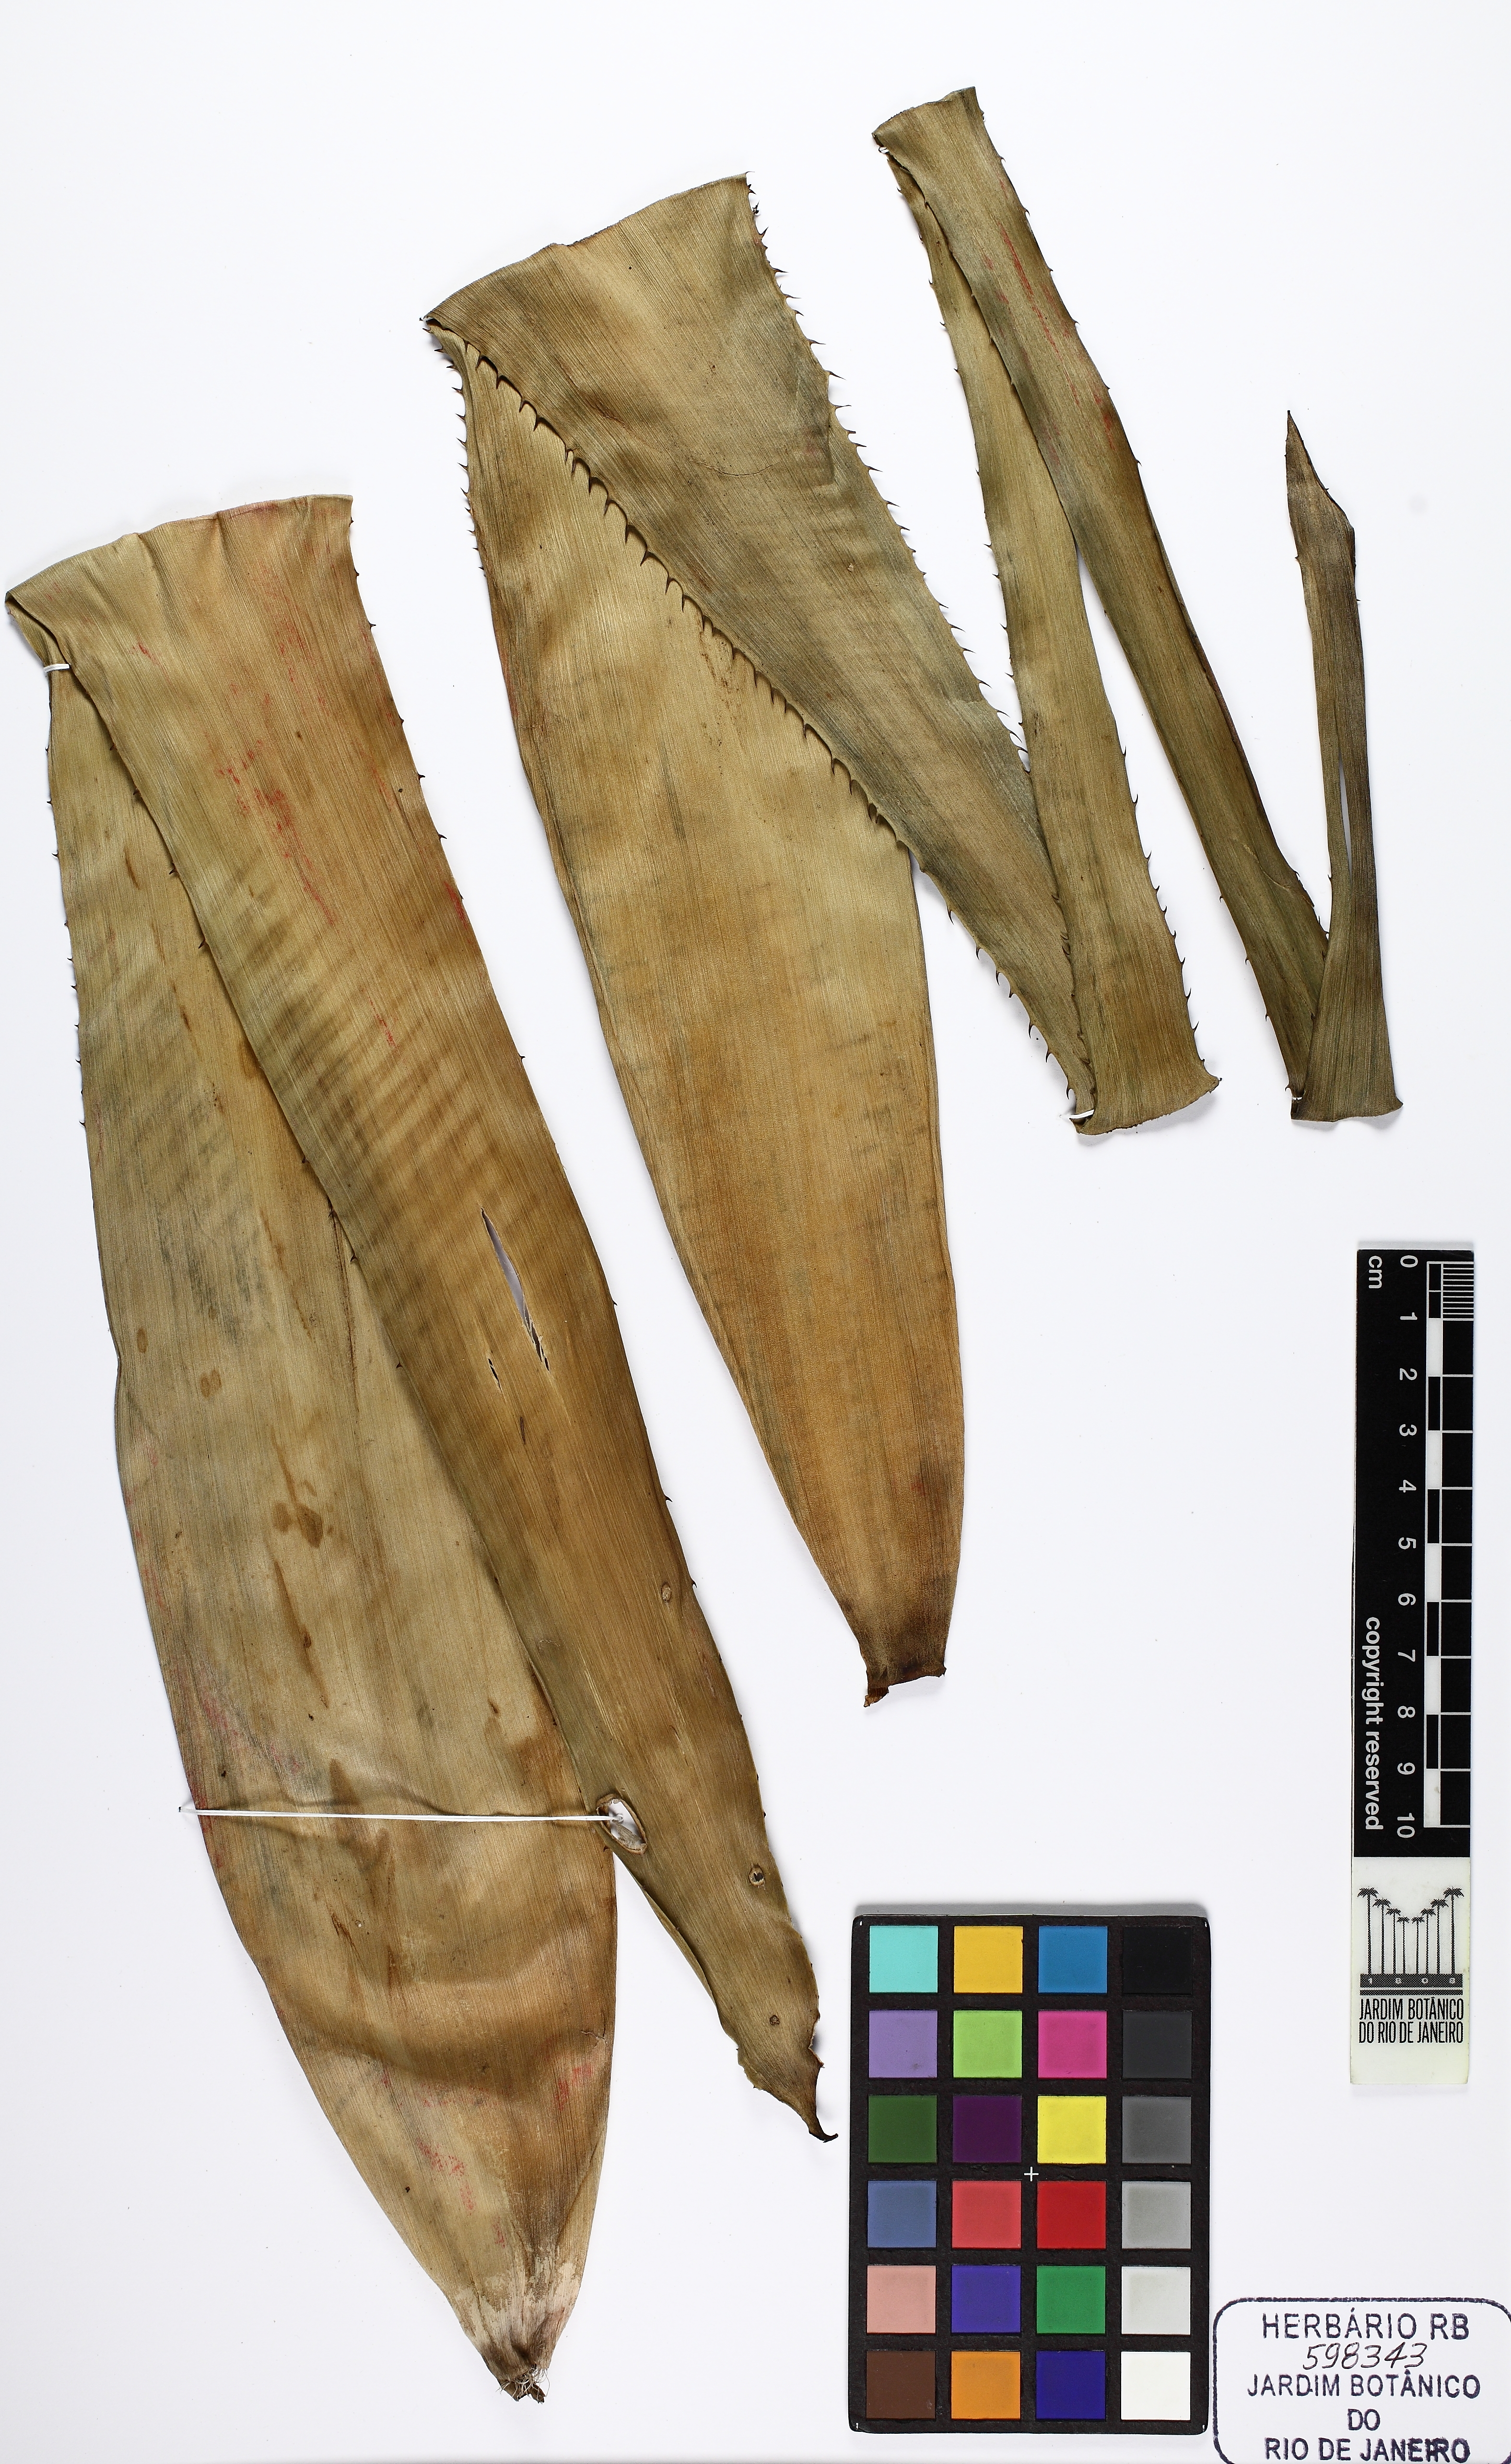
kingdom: Plantae
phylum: Tracheophyta
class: Liliopsida
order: Poales
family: Bromeliaceae
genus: Aechmea
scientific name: Aechmea pineliana
